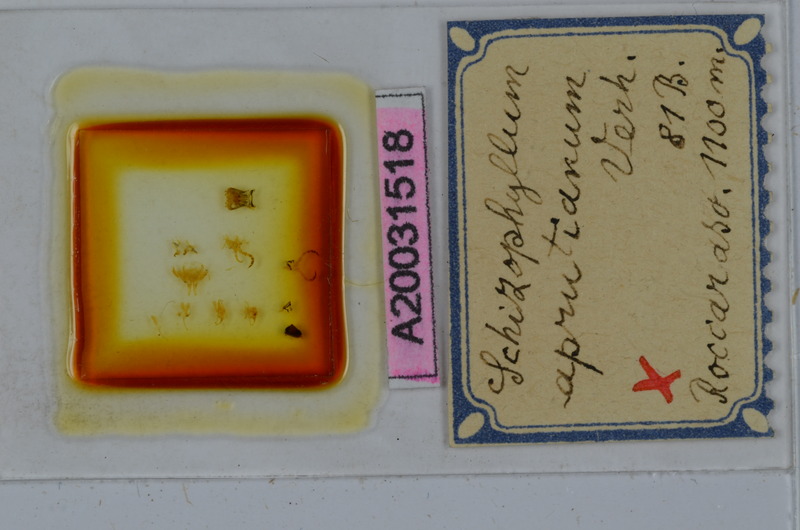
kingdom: Animalia
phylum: Arthropoda
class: Diplopoda
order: Julida
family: Julidae
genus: Schizophyllum
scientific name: Schizophyllum
